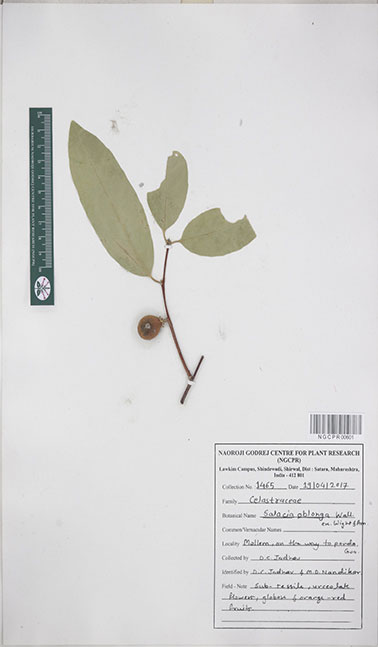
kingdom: Plantae
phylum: Tracheophyta
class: Magnoliopsida
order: Celastrales
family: Celastraceae
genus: Salacia
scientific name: Salacia oblonga
